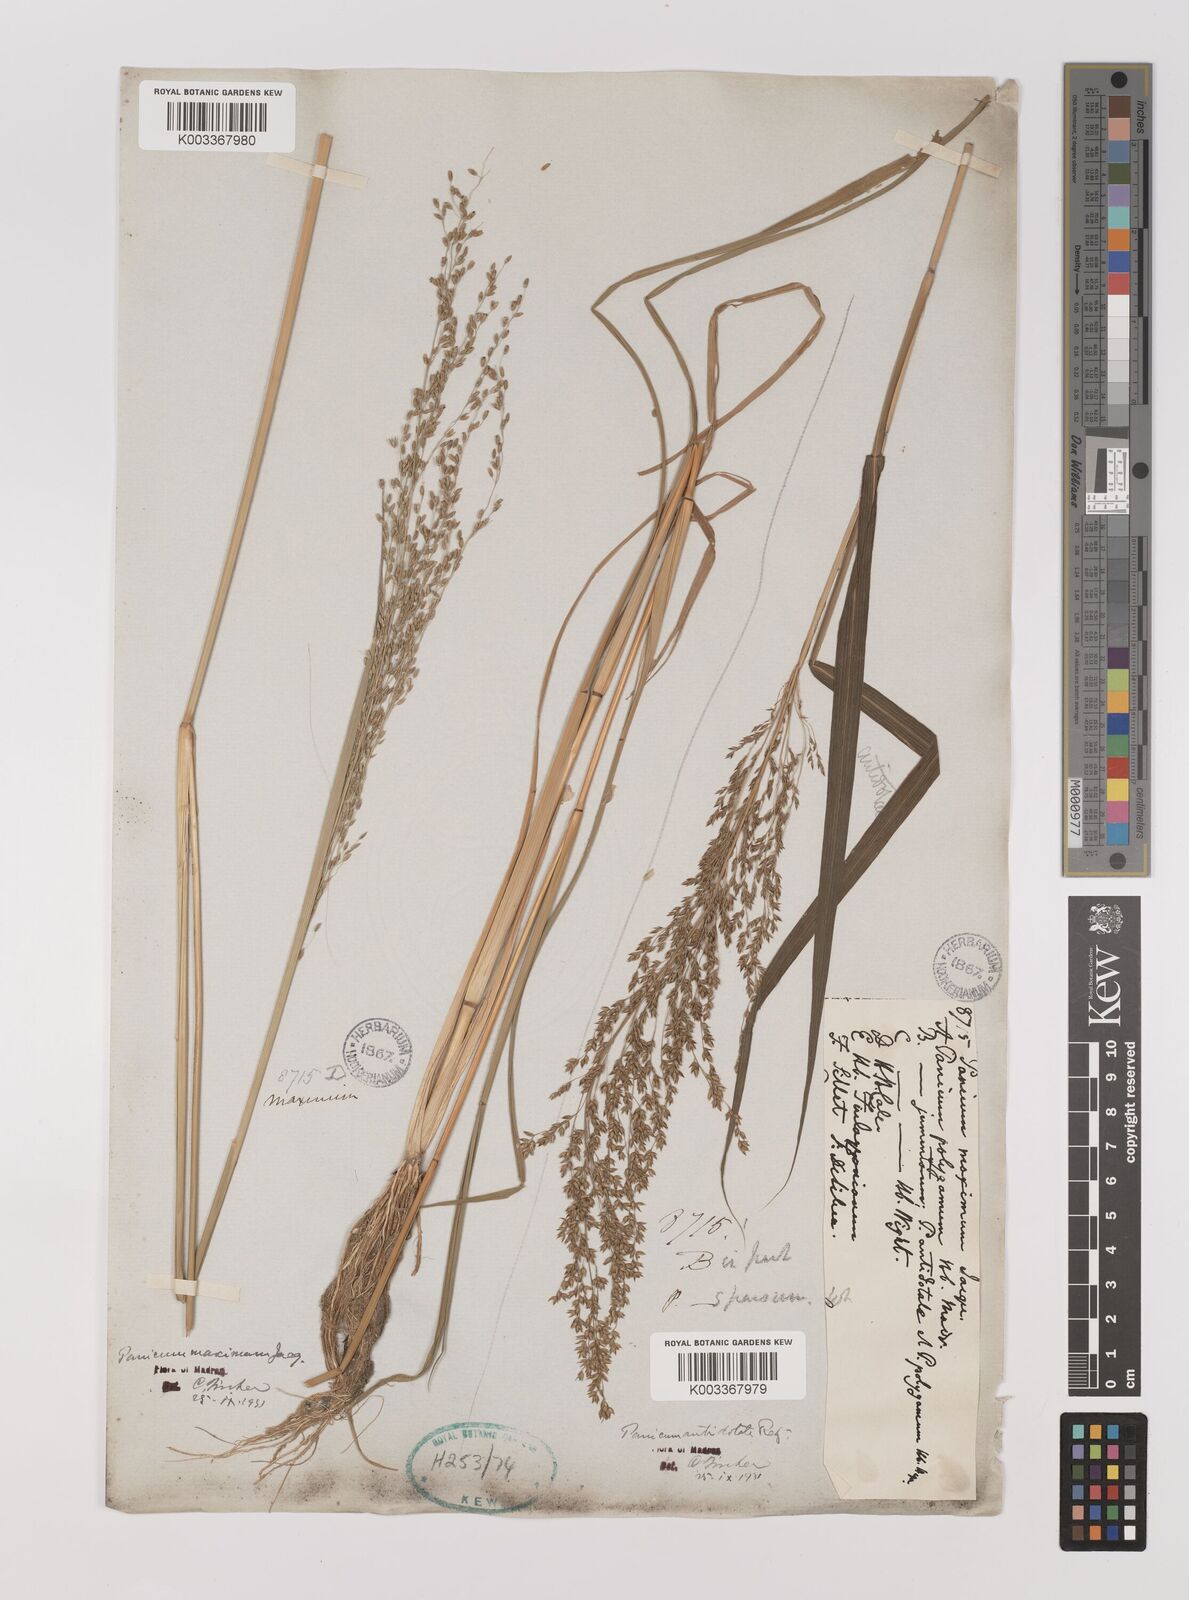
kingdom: Plantae
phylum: Tracheophyta
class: Liliopsida
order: Poales
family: Poaceae
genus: Megathyrsus
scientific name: Megathyrsus maximus
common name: Guineagrass
